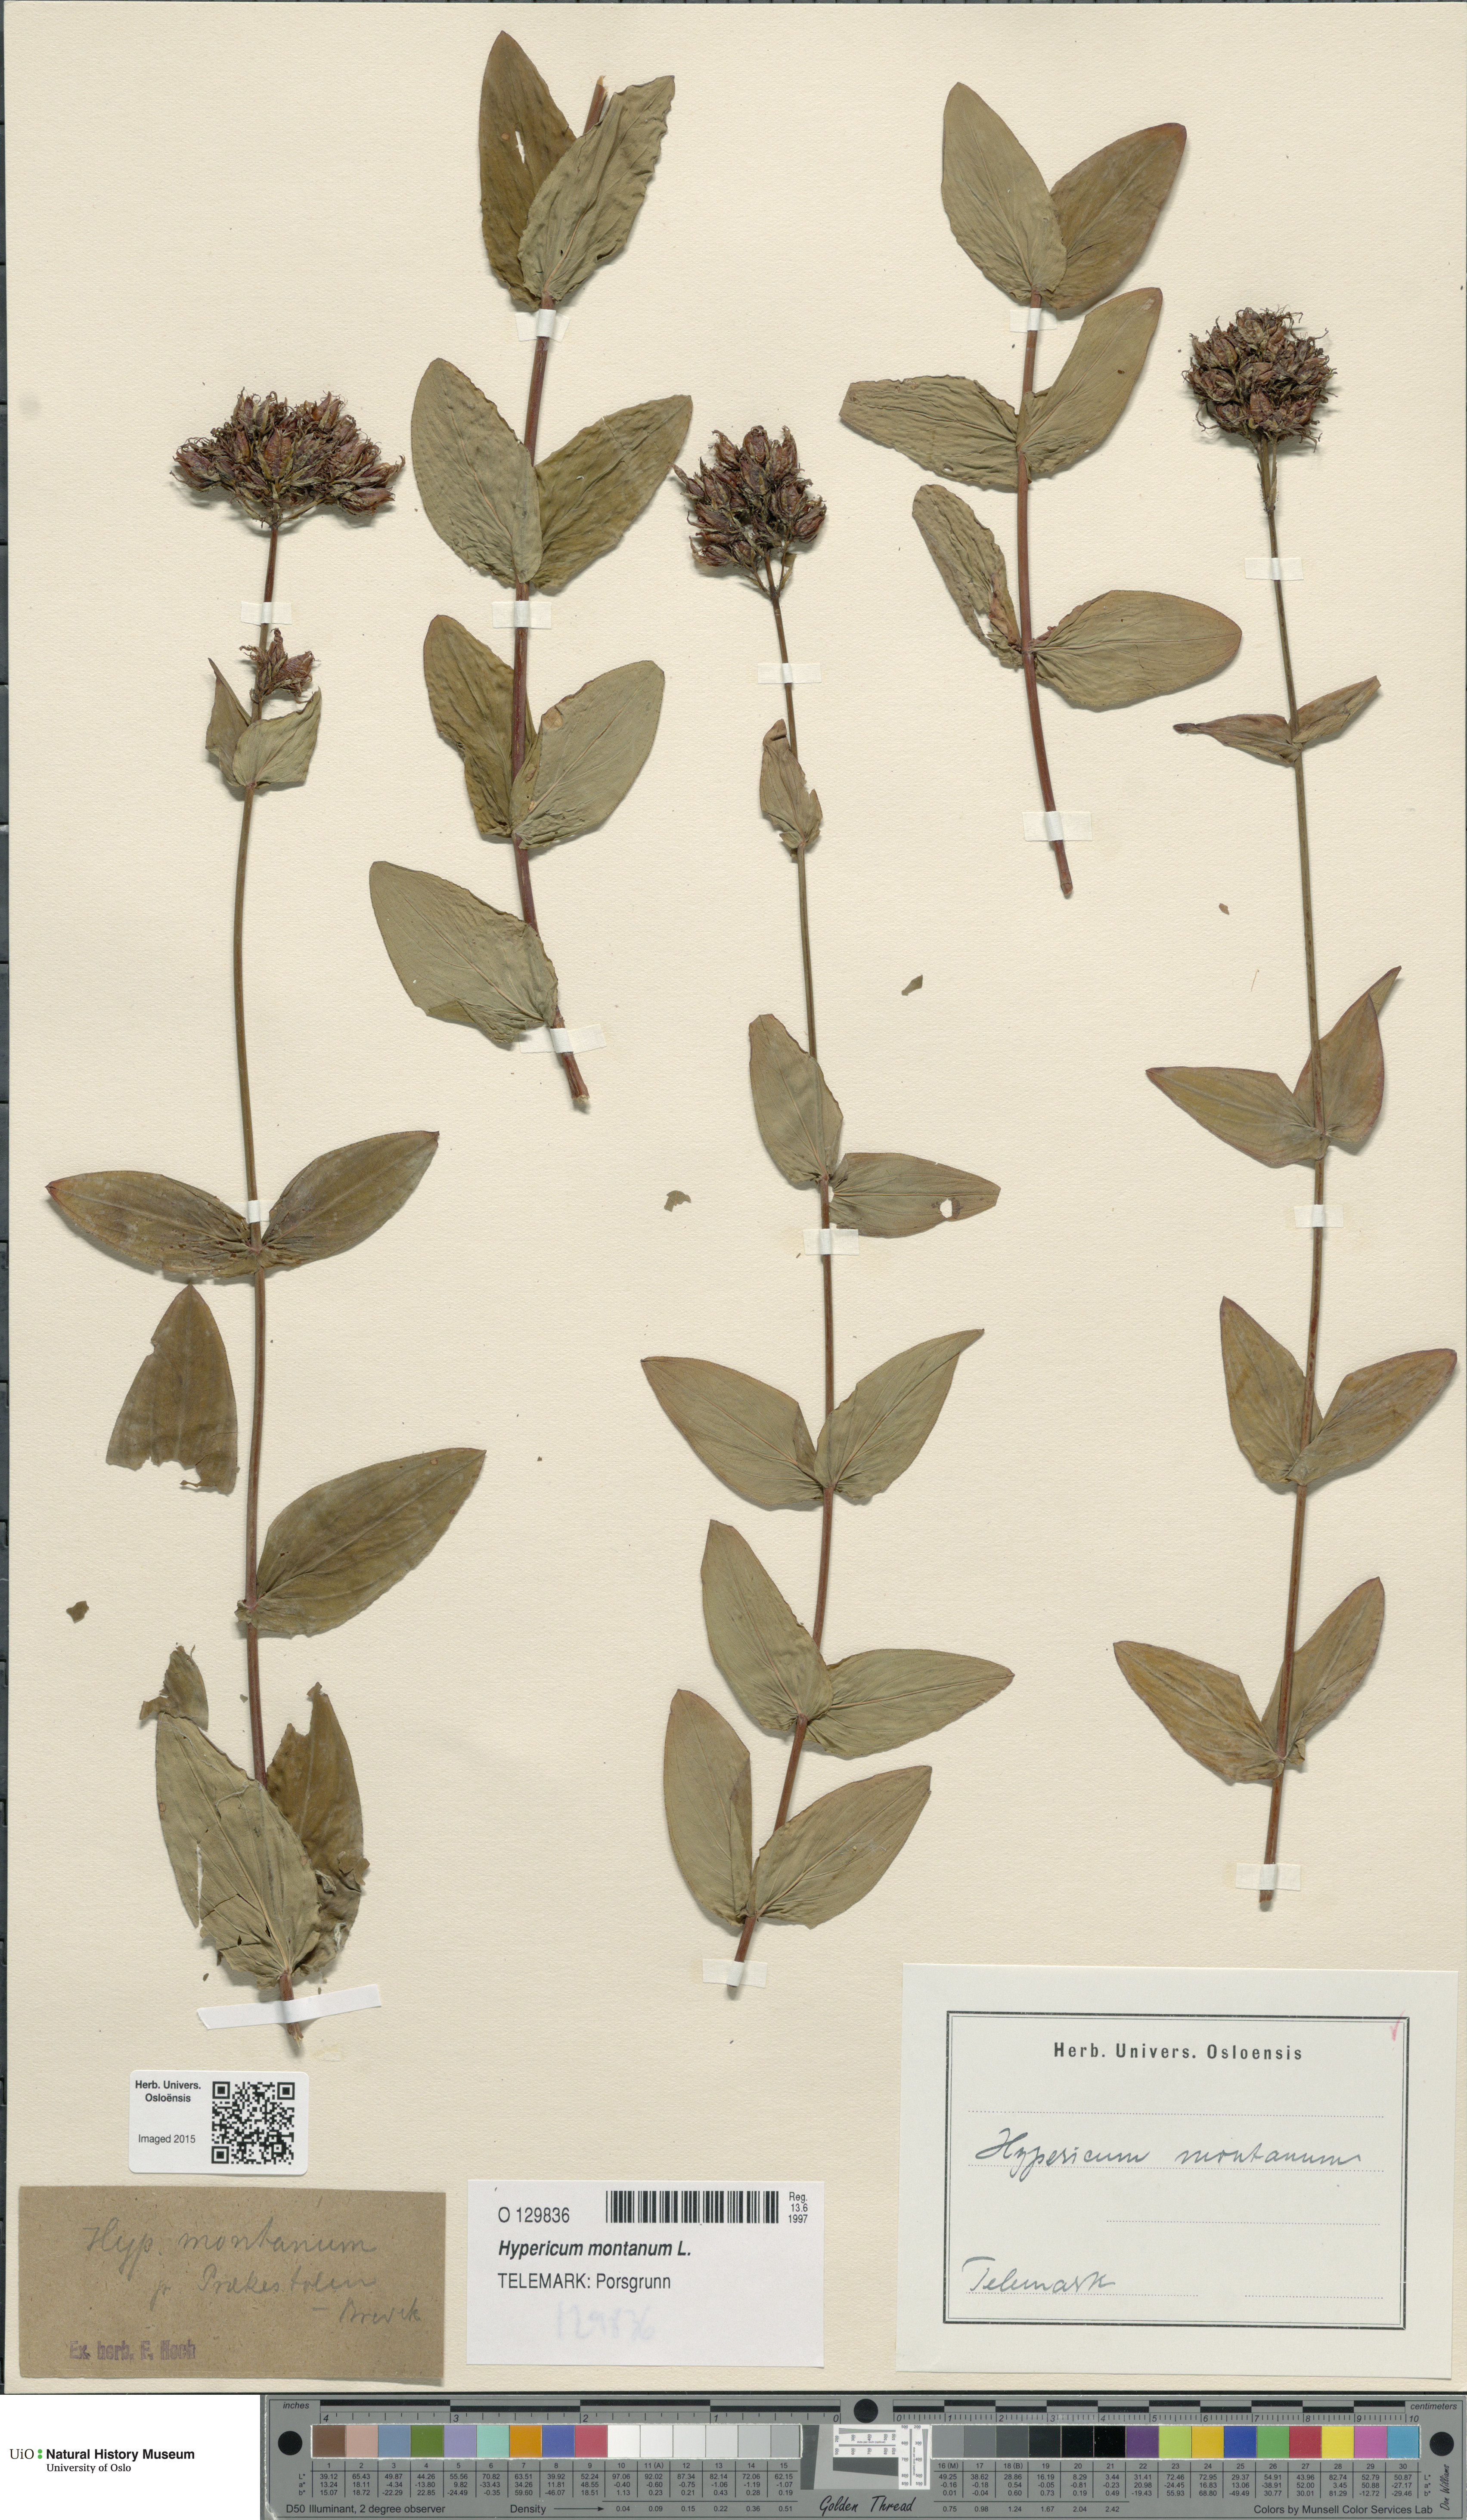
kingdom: Plantae
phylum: Tracheophyta
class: Magnoliopsida
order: Malpighiales
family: Hypericaceae
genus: Hypericum
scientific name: Hypericum montanum
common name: Pale st. john's-wort
